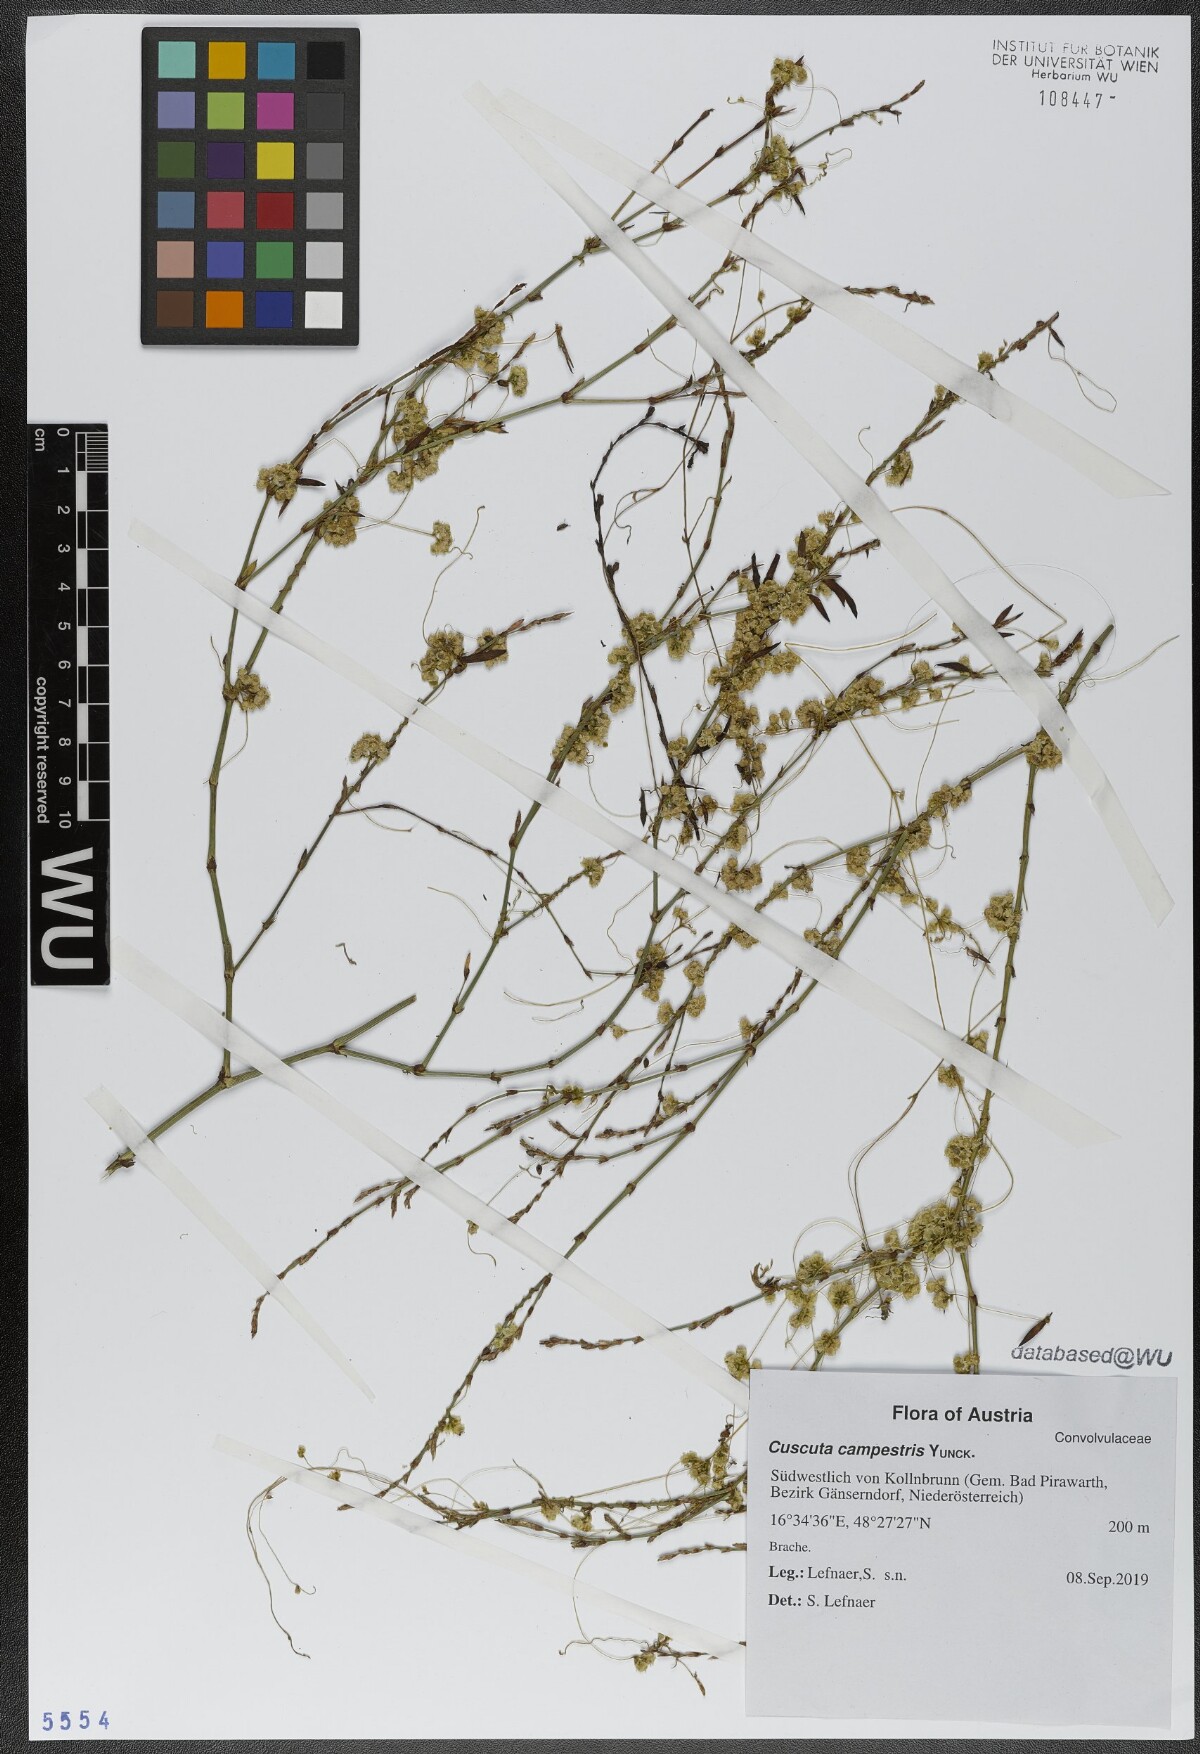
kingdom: Plantae
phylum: Tracheophyta
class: Magnoliopsida
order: Solanales
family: Convolvulaceae
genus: Cuscuta
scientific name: Cuscuta campestris
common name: Yellow dodder
